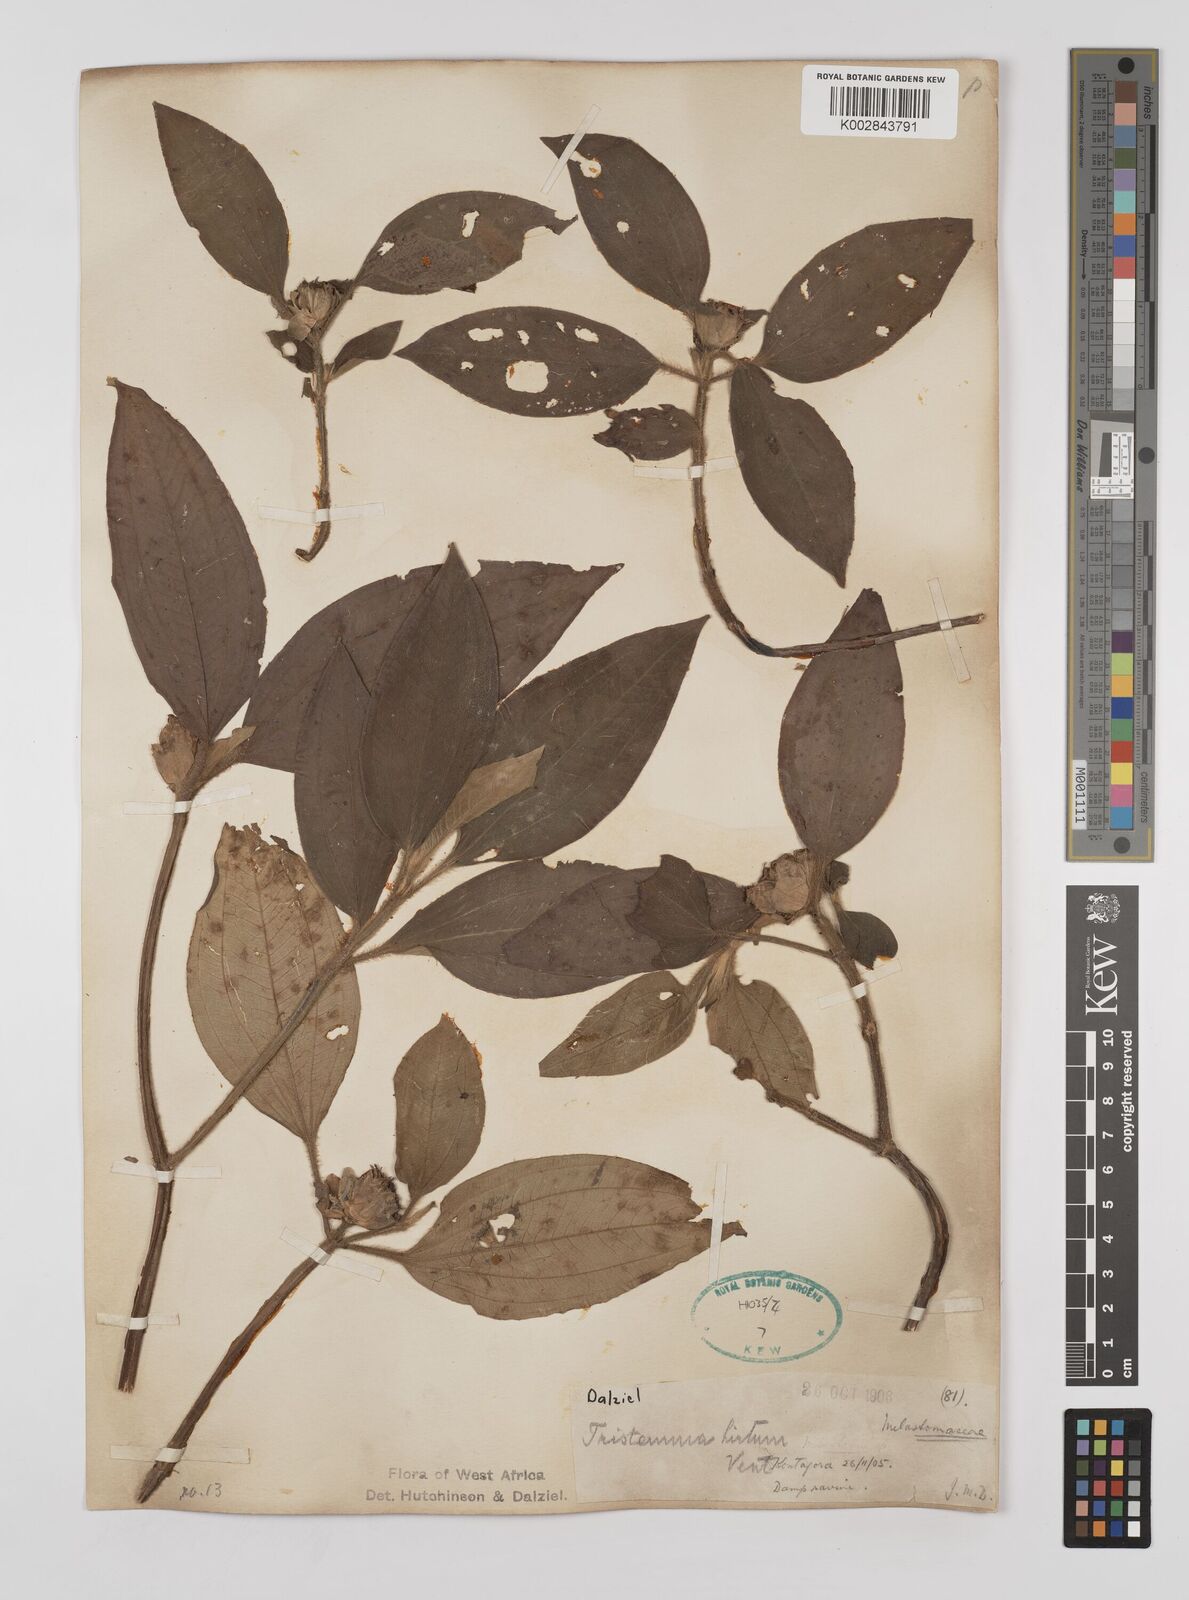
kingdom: Plantae
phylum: Tracheophyta
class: Magnoliopsida
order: Myrtales
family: Melastomataceae
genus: Tristemma
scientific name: Tristemma hirtum
